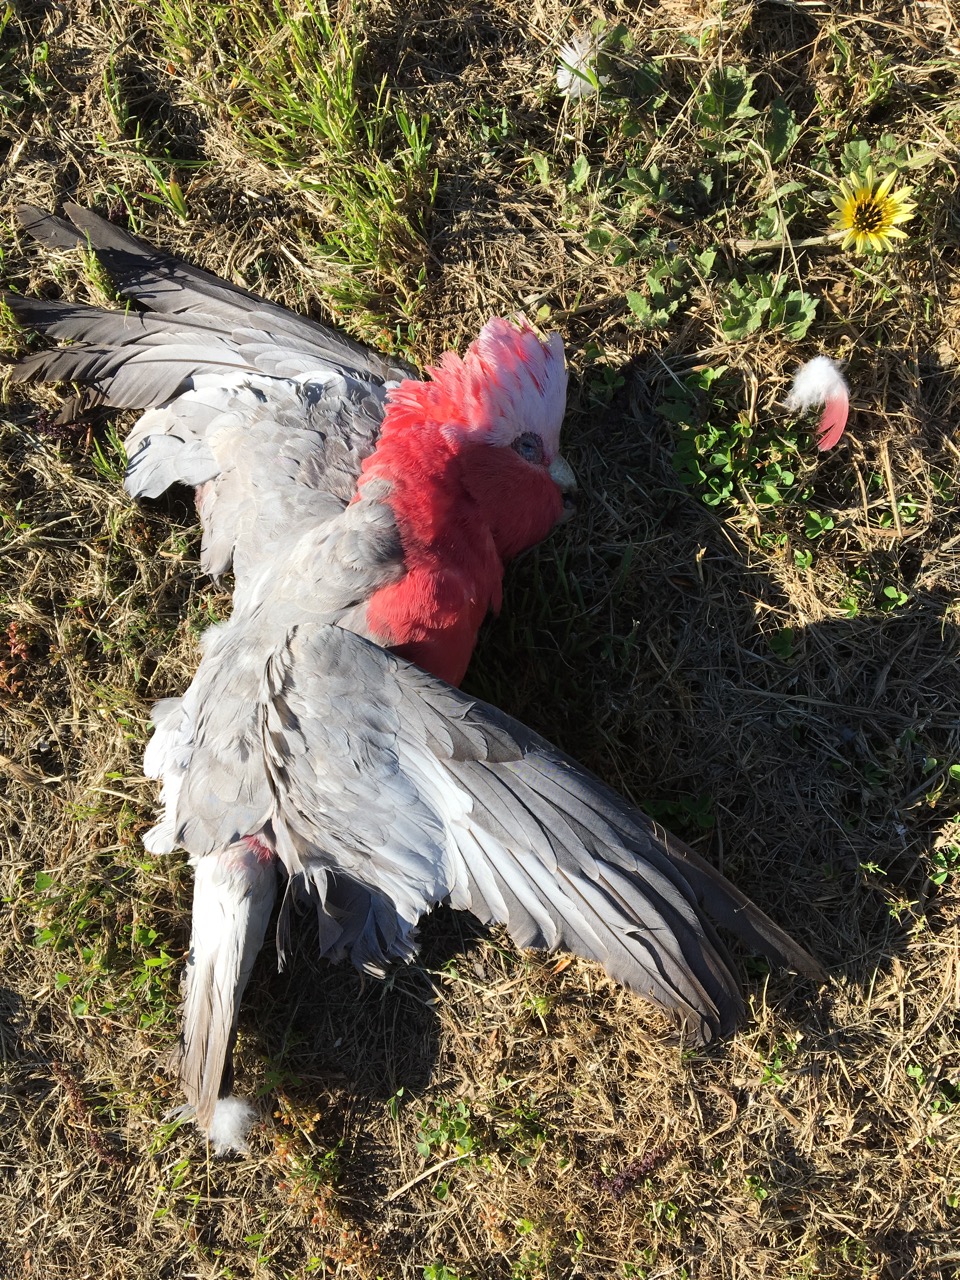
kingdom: Animalia
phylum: Chordata
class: Aves
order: Psittaciformes
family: Psittacidae
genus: Eolophus
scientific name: Eolophus roseicapilla
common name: Galah
